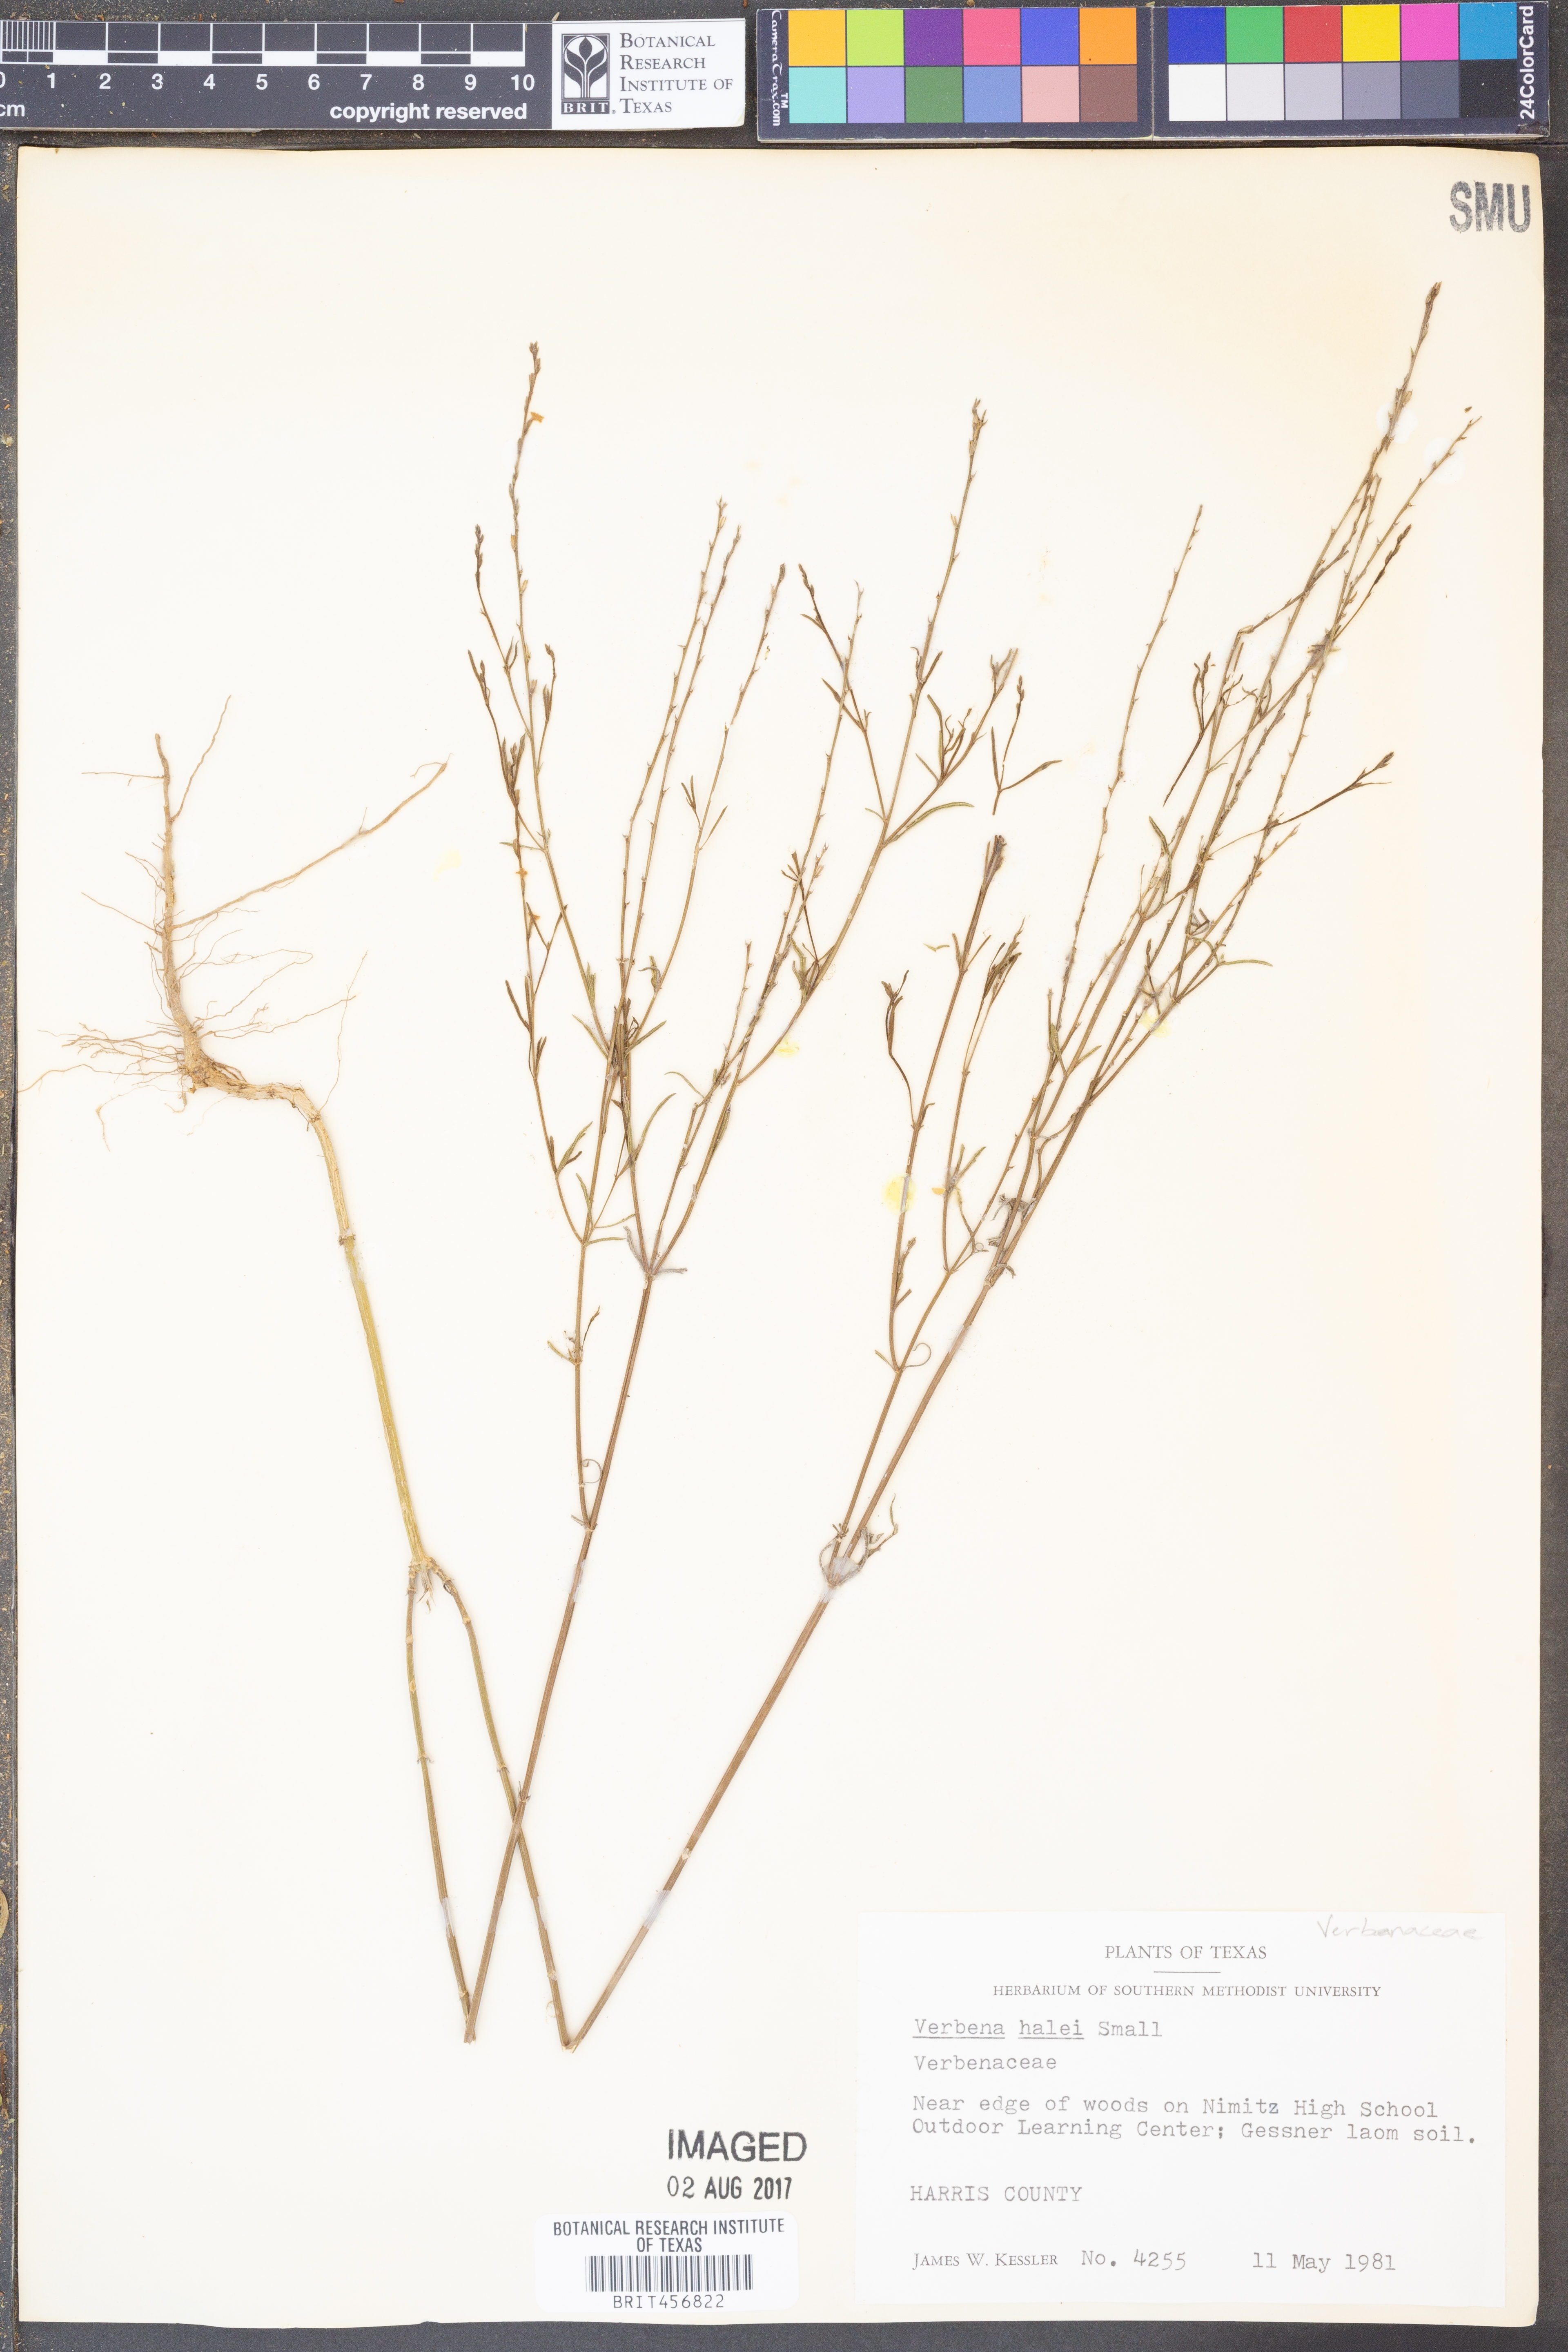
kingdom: Plantae
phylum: Tracheophyta
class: Magnoliopsida
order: Lamiales
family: Verbenaceae
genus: Verbena
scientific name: Verbena halei
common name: Texas vervain
